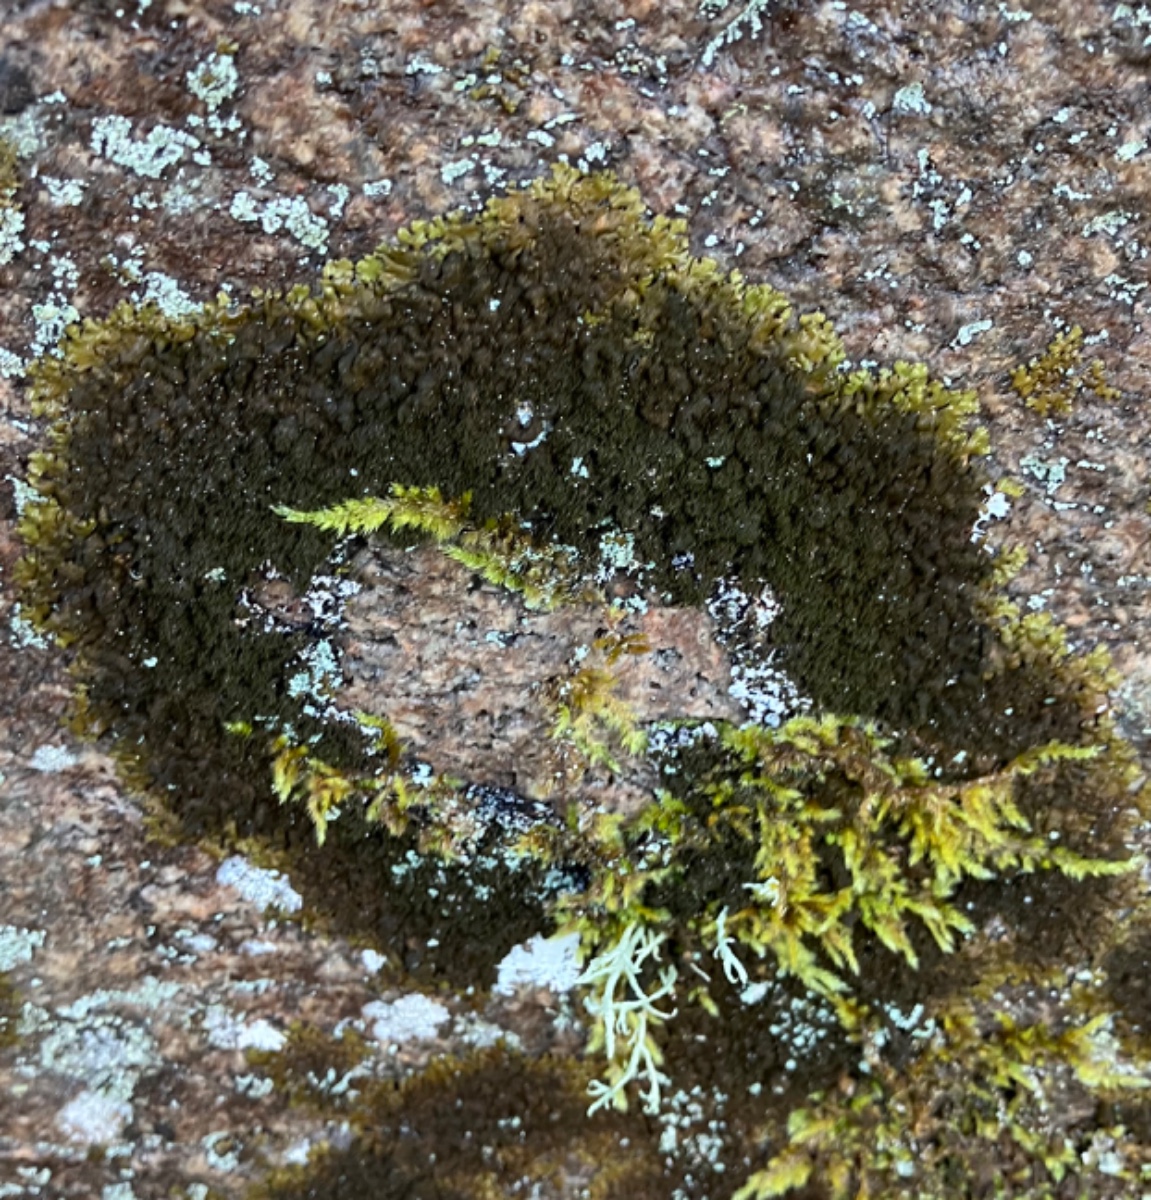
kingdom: Fungi
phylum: Ascomycota
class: Lecanoromycetes
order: Lecanorales
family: Parmeliaceae
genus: Melanelixia
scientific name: Melanelixia fuliginosa
